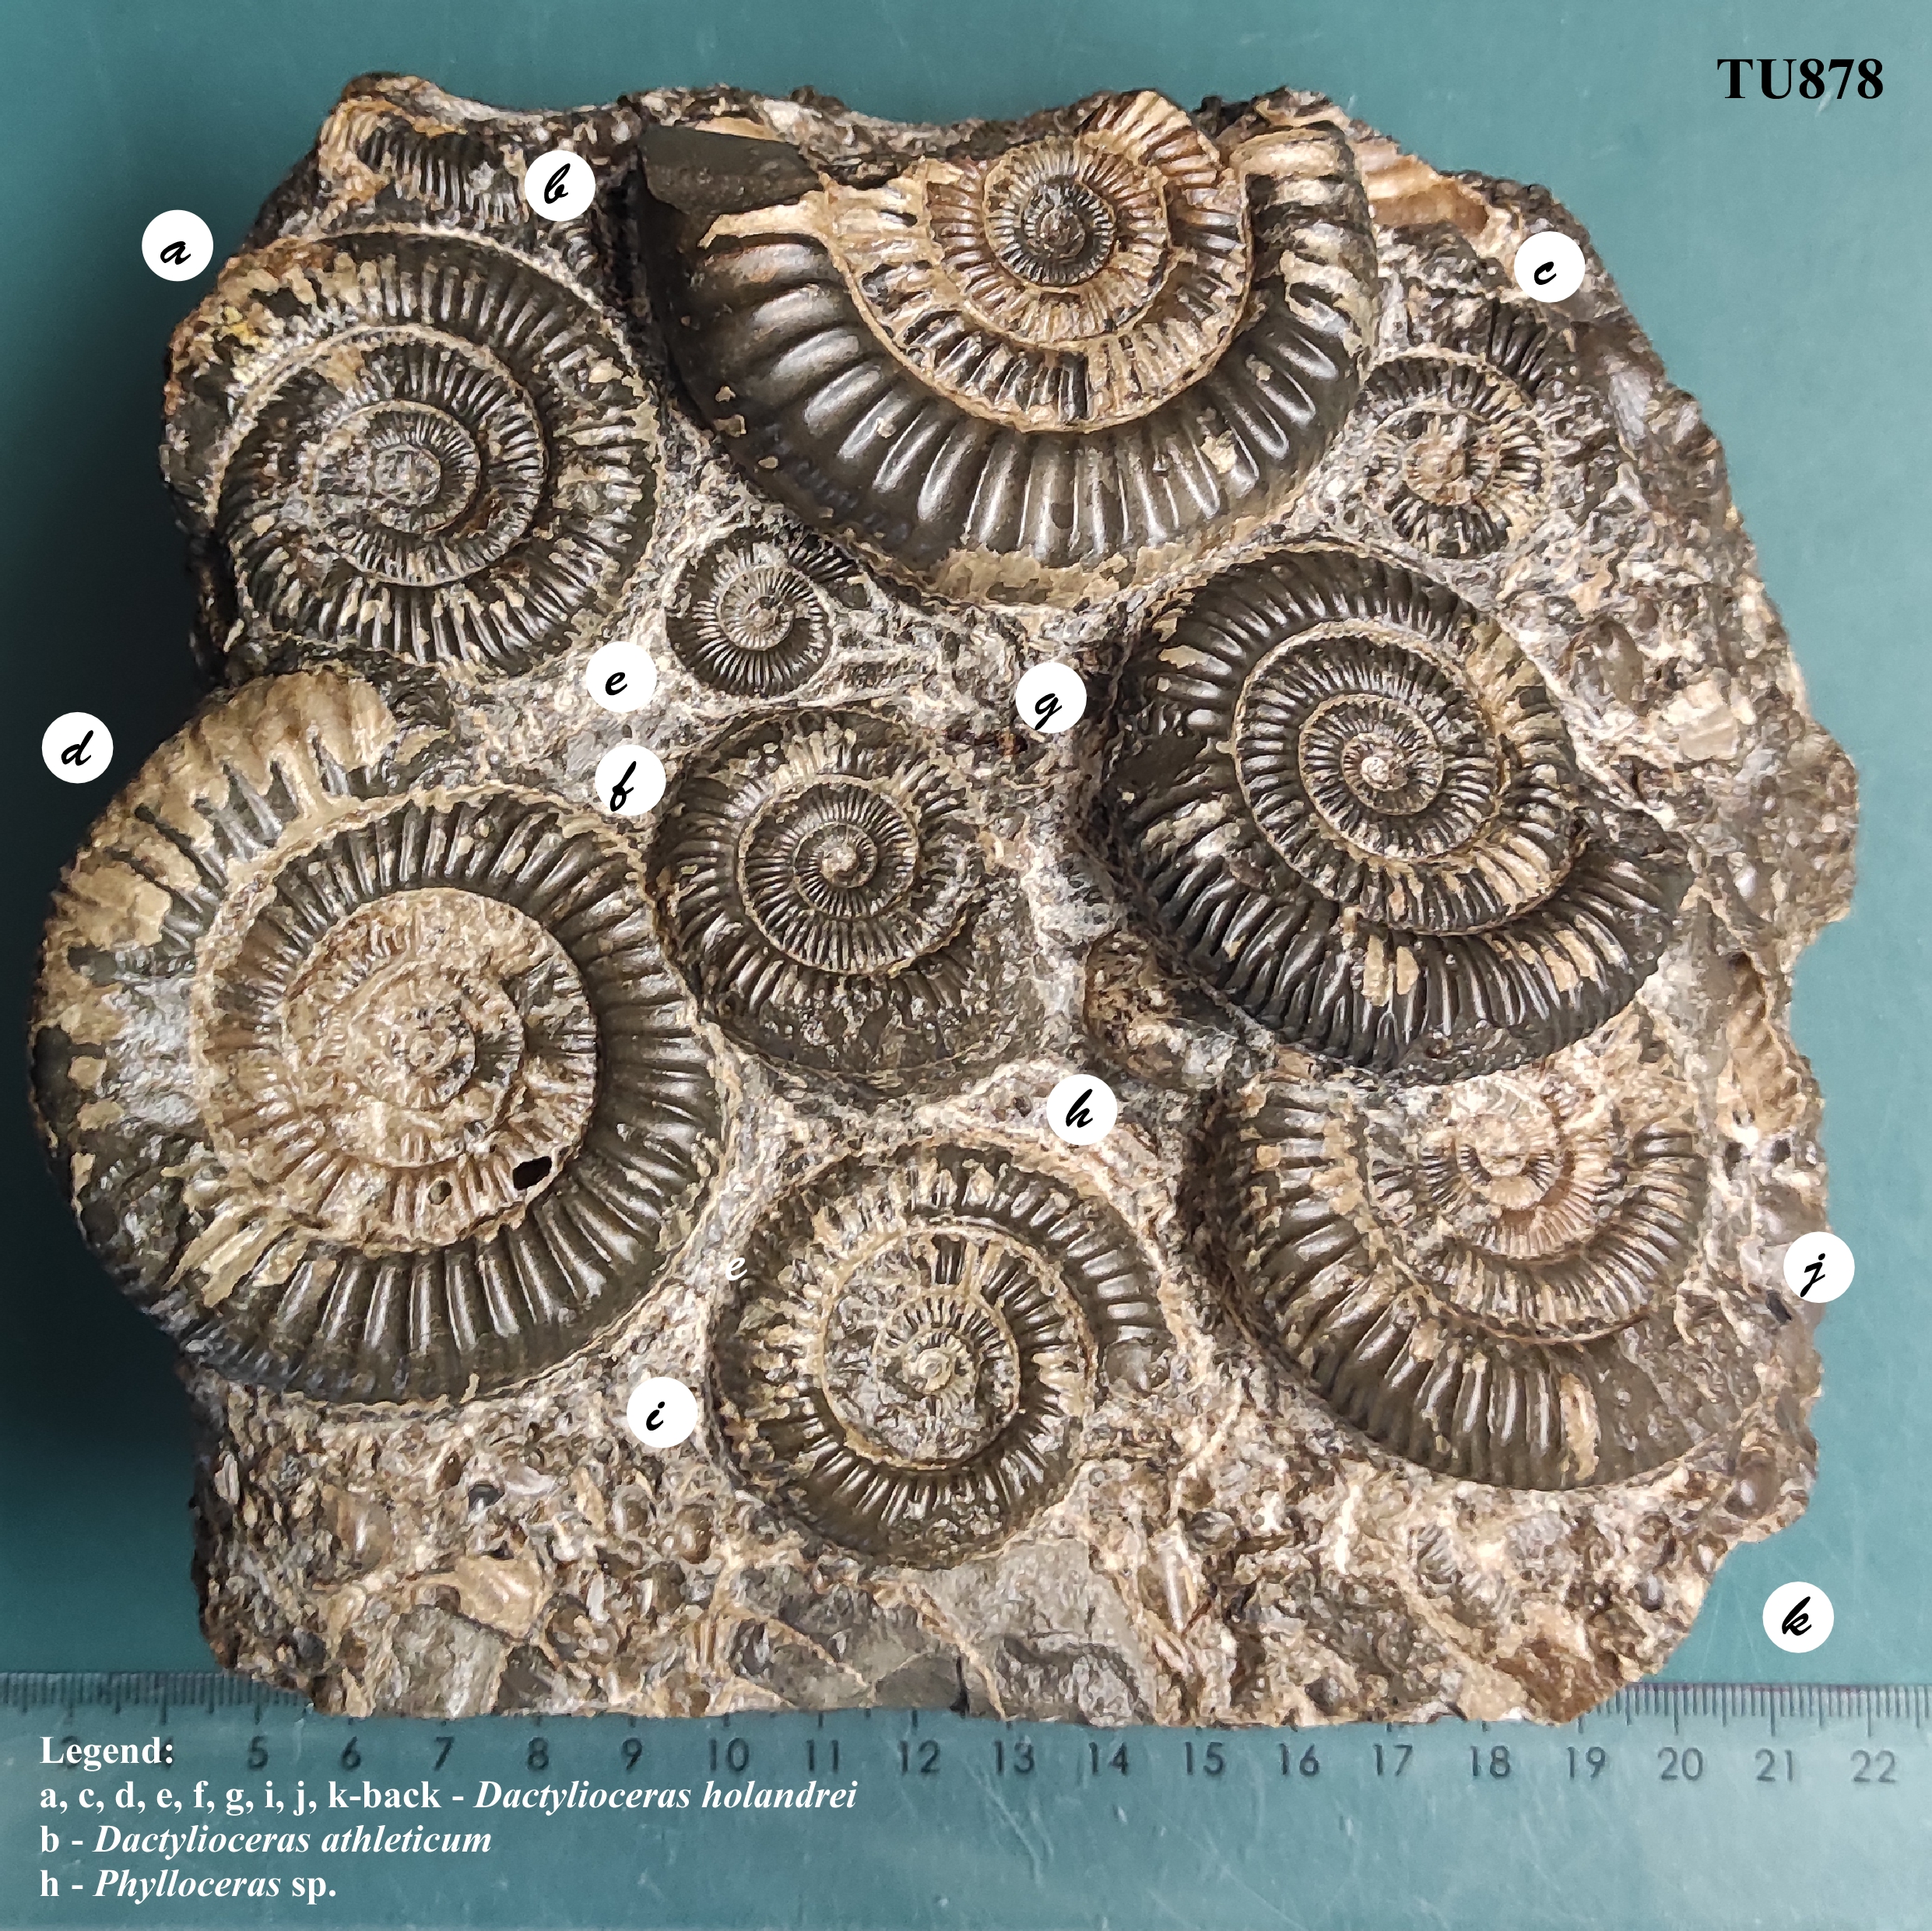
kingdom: Animalia
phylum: Mollusca
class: Cephalopoda
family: Dactylioceratidae
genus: Dactylioceras
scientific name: Dactylioceras
